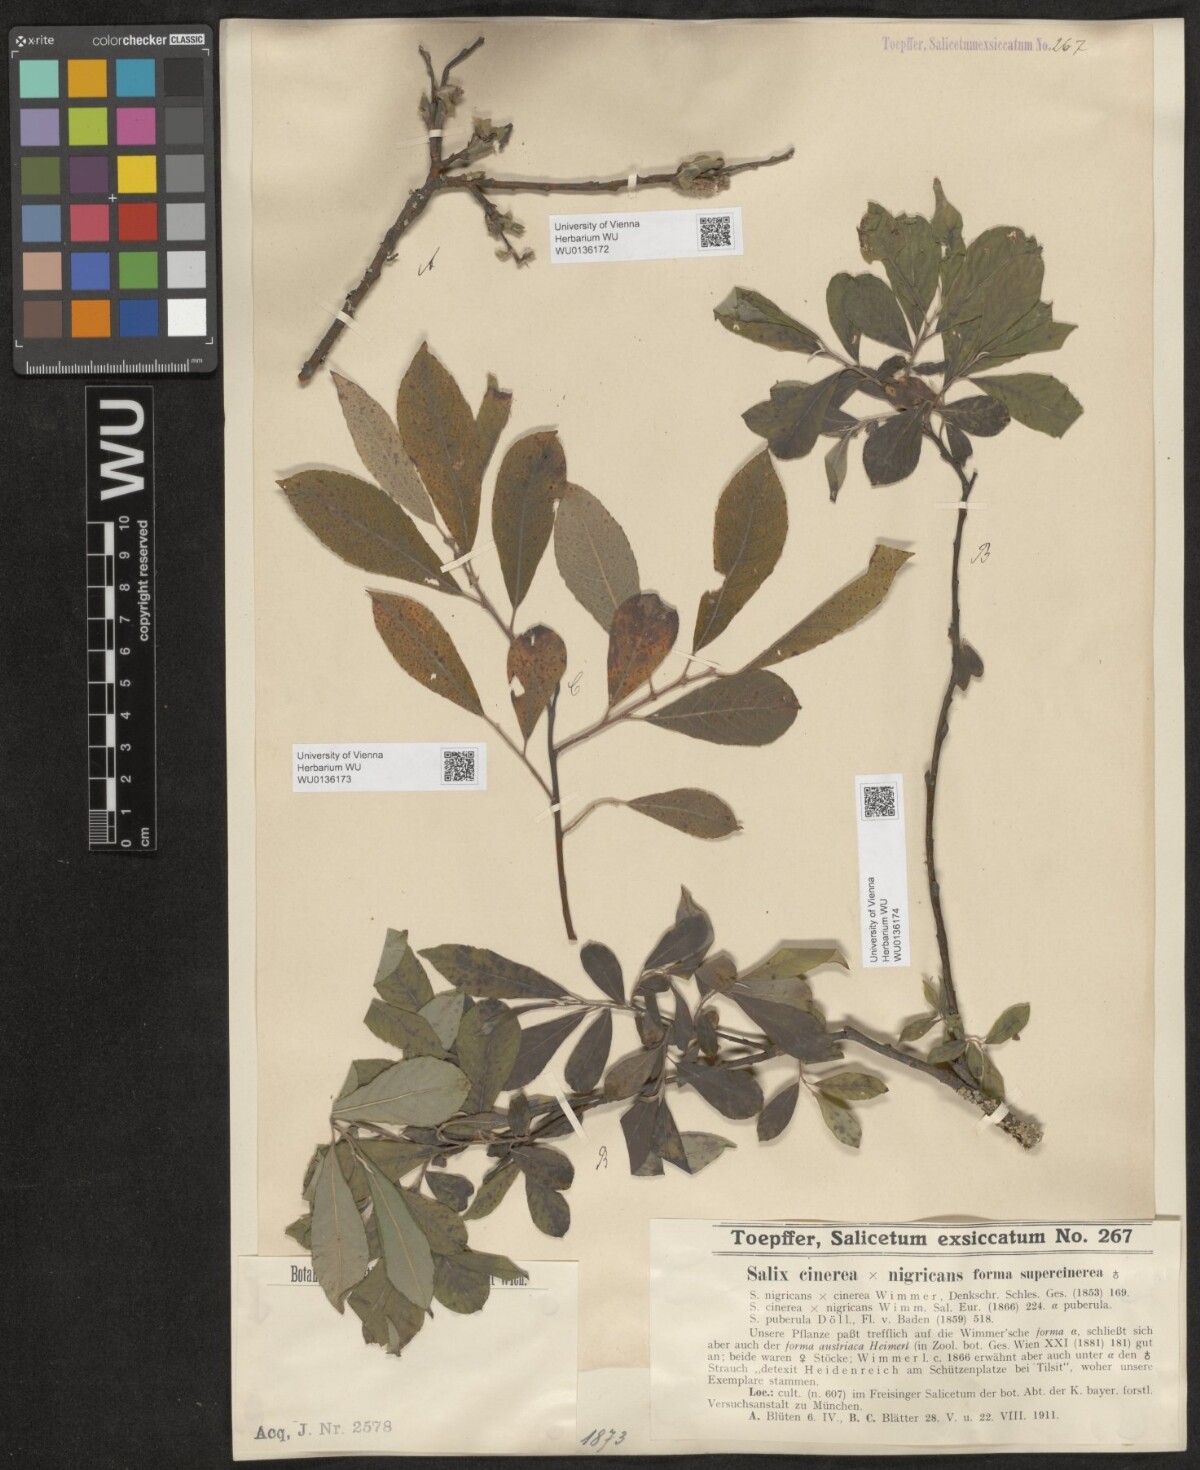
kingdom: Plantae
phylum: Tracheophyta
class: Magnoliopsida
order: Malpighiales
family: Salicaceae
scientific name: Salicaceae
